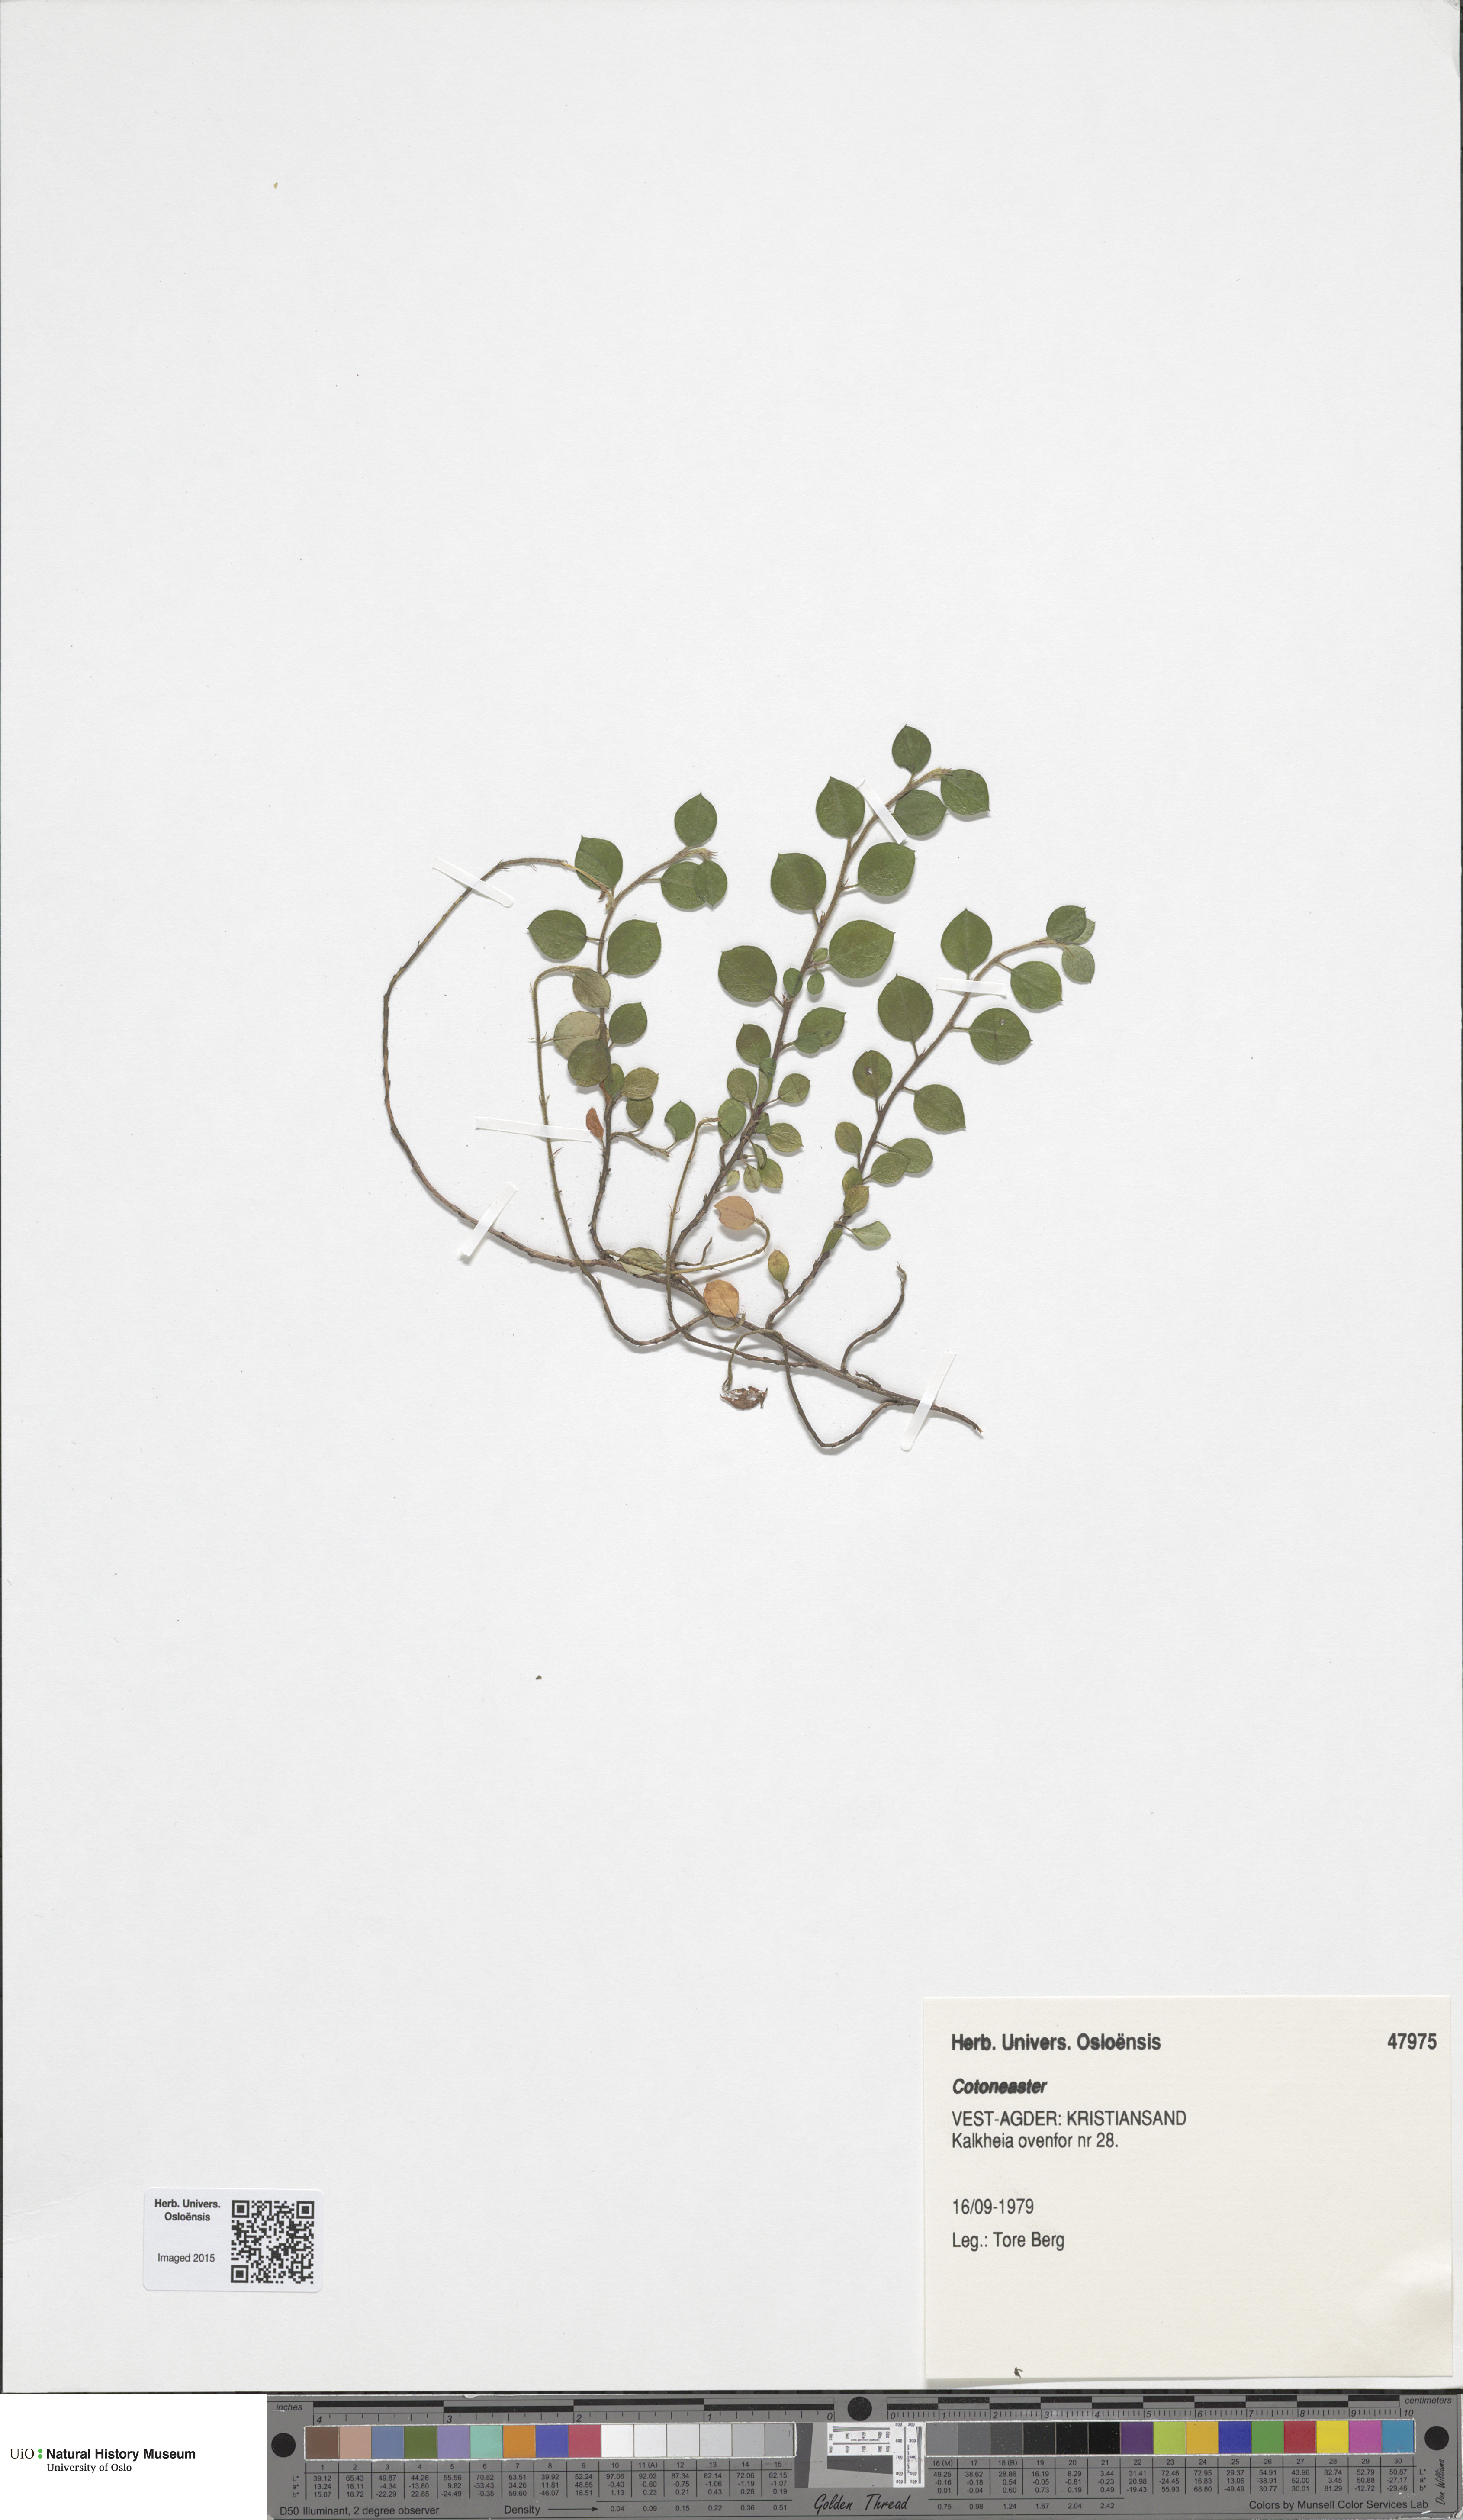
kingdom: Plantae
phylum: Tracheophyta
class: Magnoliopsida
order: Rosales
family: Rosaceae
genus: Cotoneaster
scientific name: Cotoneaster
